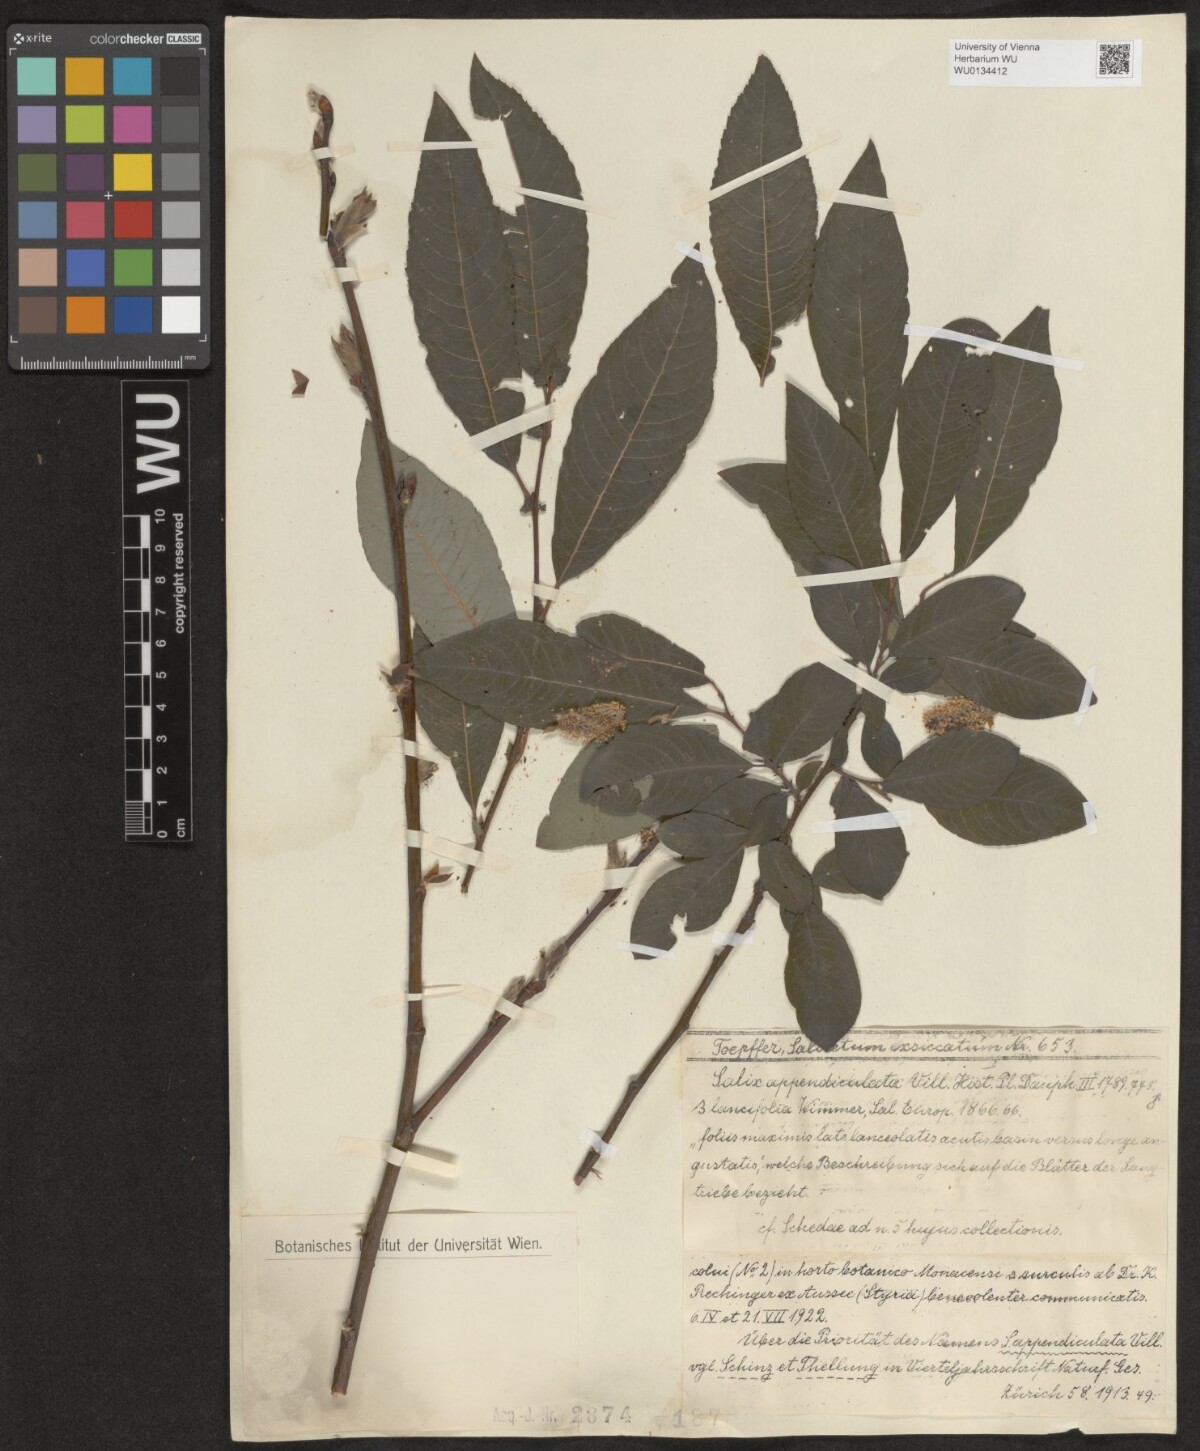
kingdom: Plantae
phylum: Tracheophyta
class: Magnoliopsida
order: Malpighiales
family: Salicaceae
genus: Salix
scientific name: Salix appendiculata
